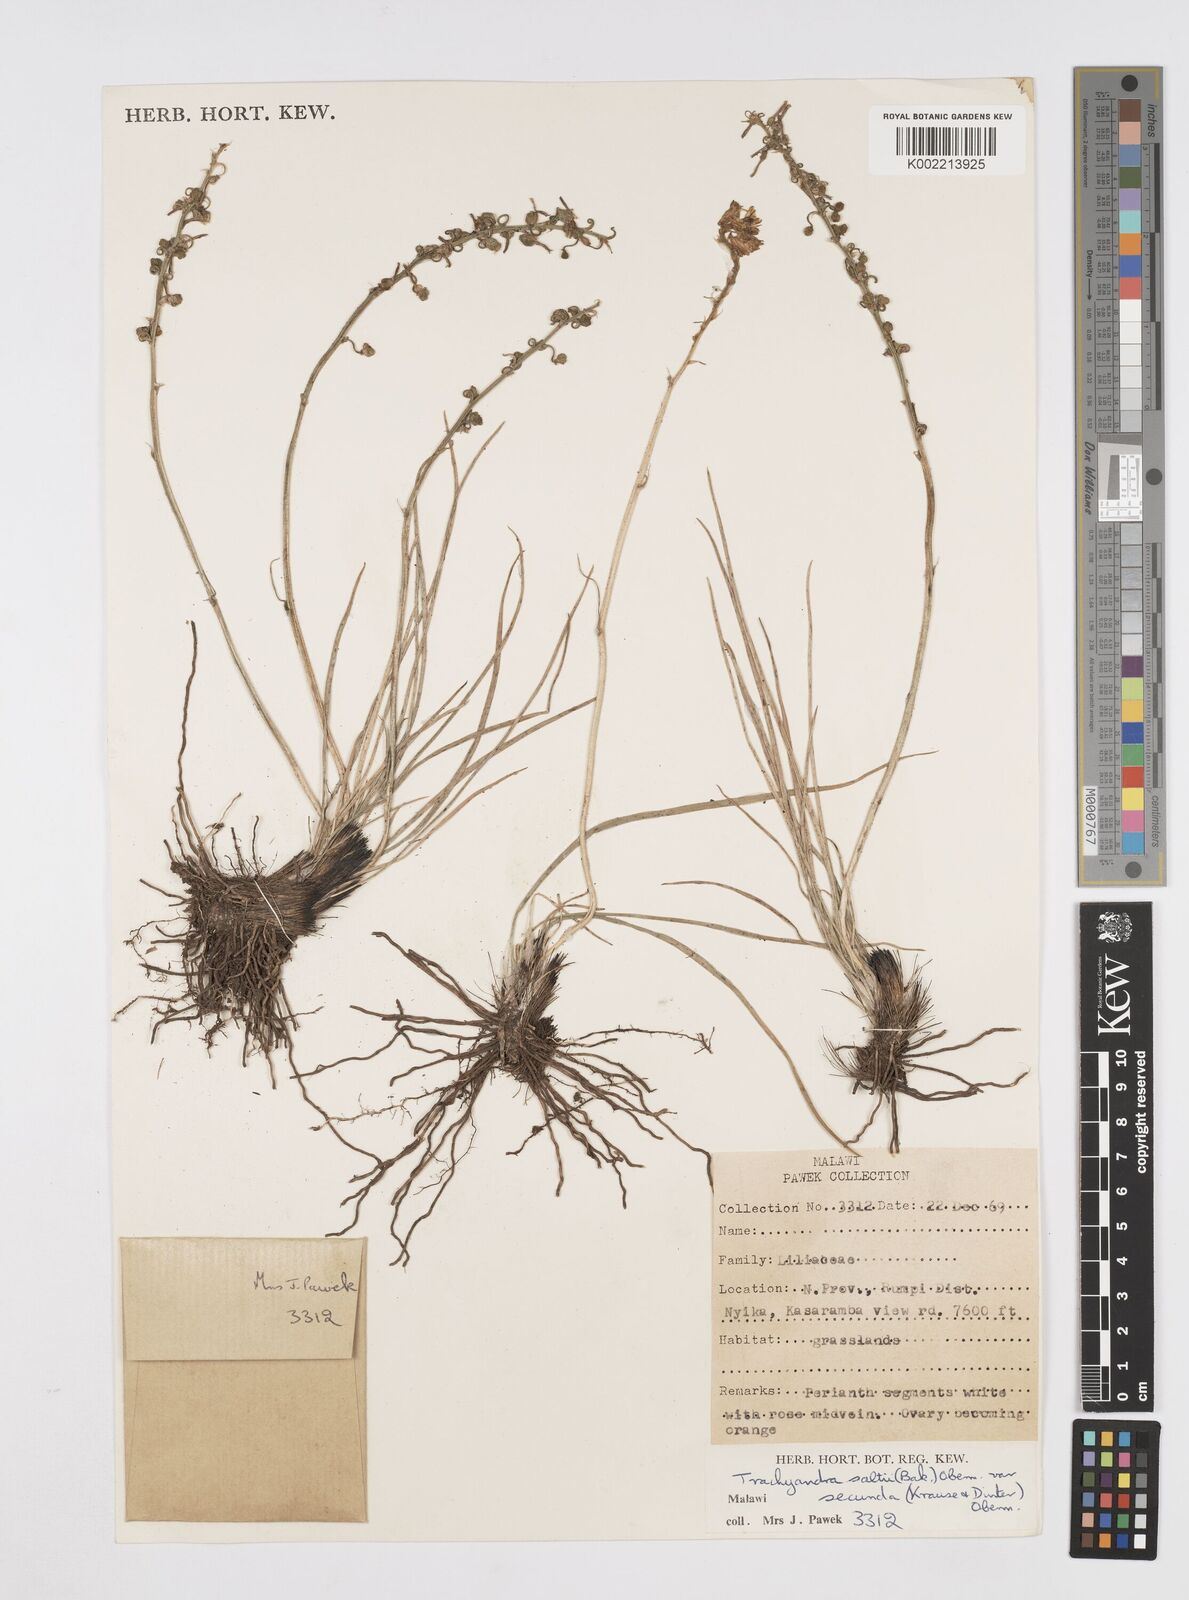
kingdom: Plantae
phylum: Tracheophyta
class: Liliopsida
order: Asparagales
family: Asphodelaceae
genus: Trachyandra
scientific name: Trachyandra asperata
